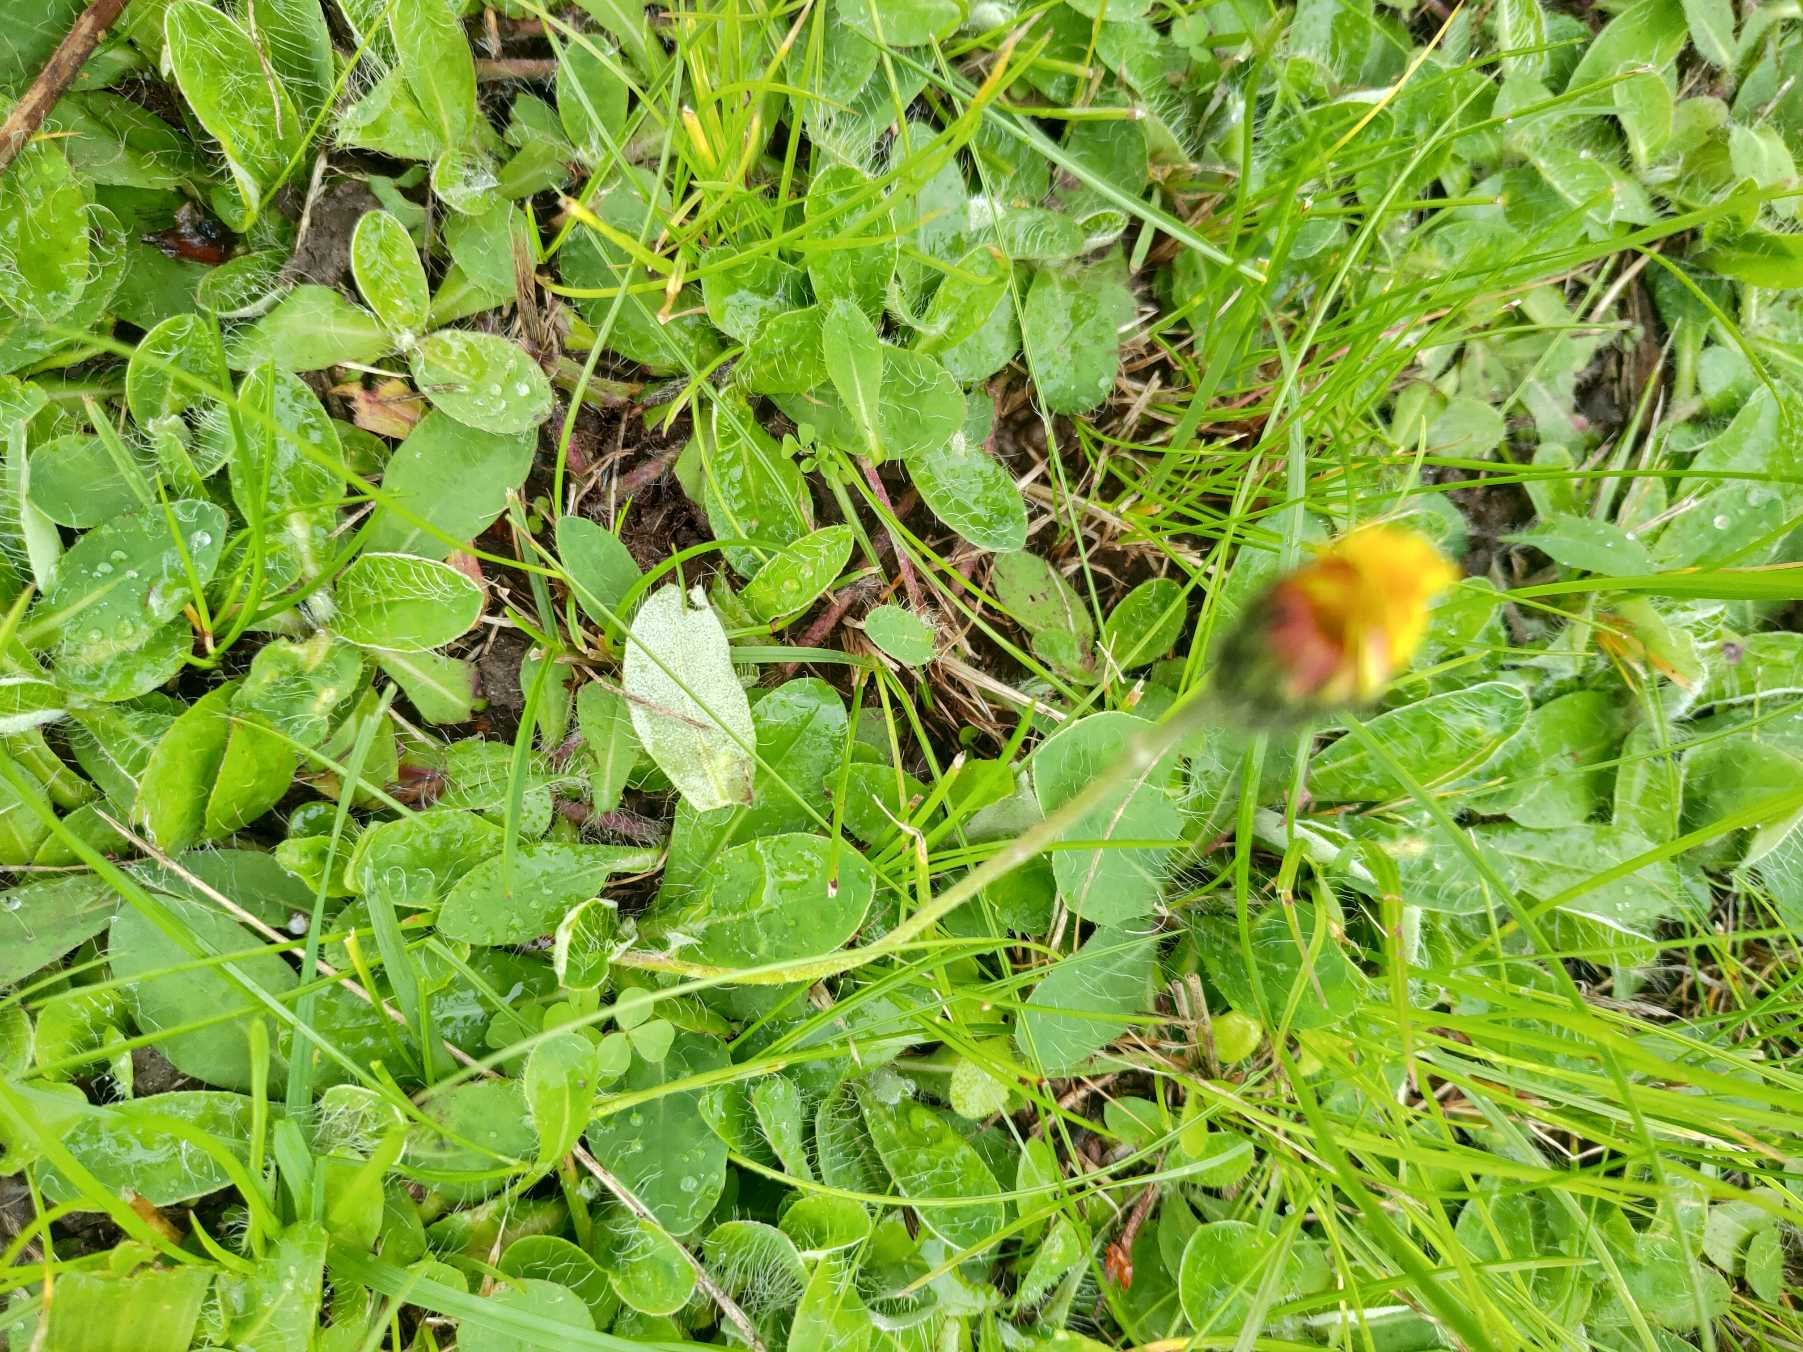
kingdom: Plantae
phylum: Tracheophyta
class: Magnoliopsida
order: Asterales
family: Asteraceae
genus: Pilosella
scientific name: Pilosella officinarum
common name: Håret høgeurt
